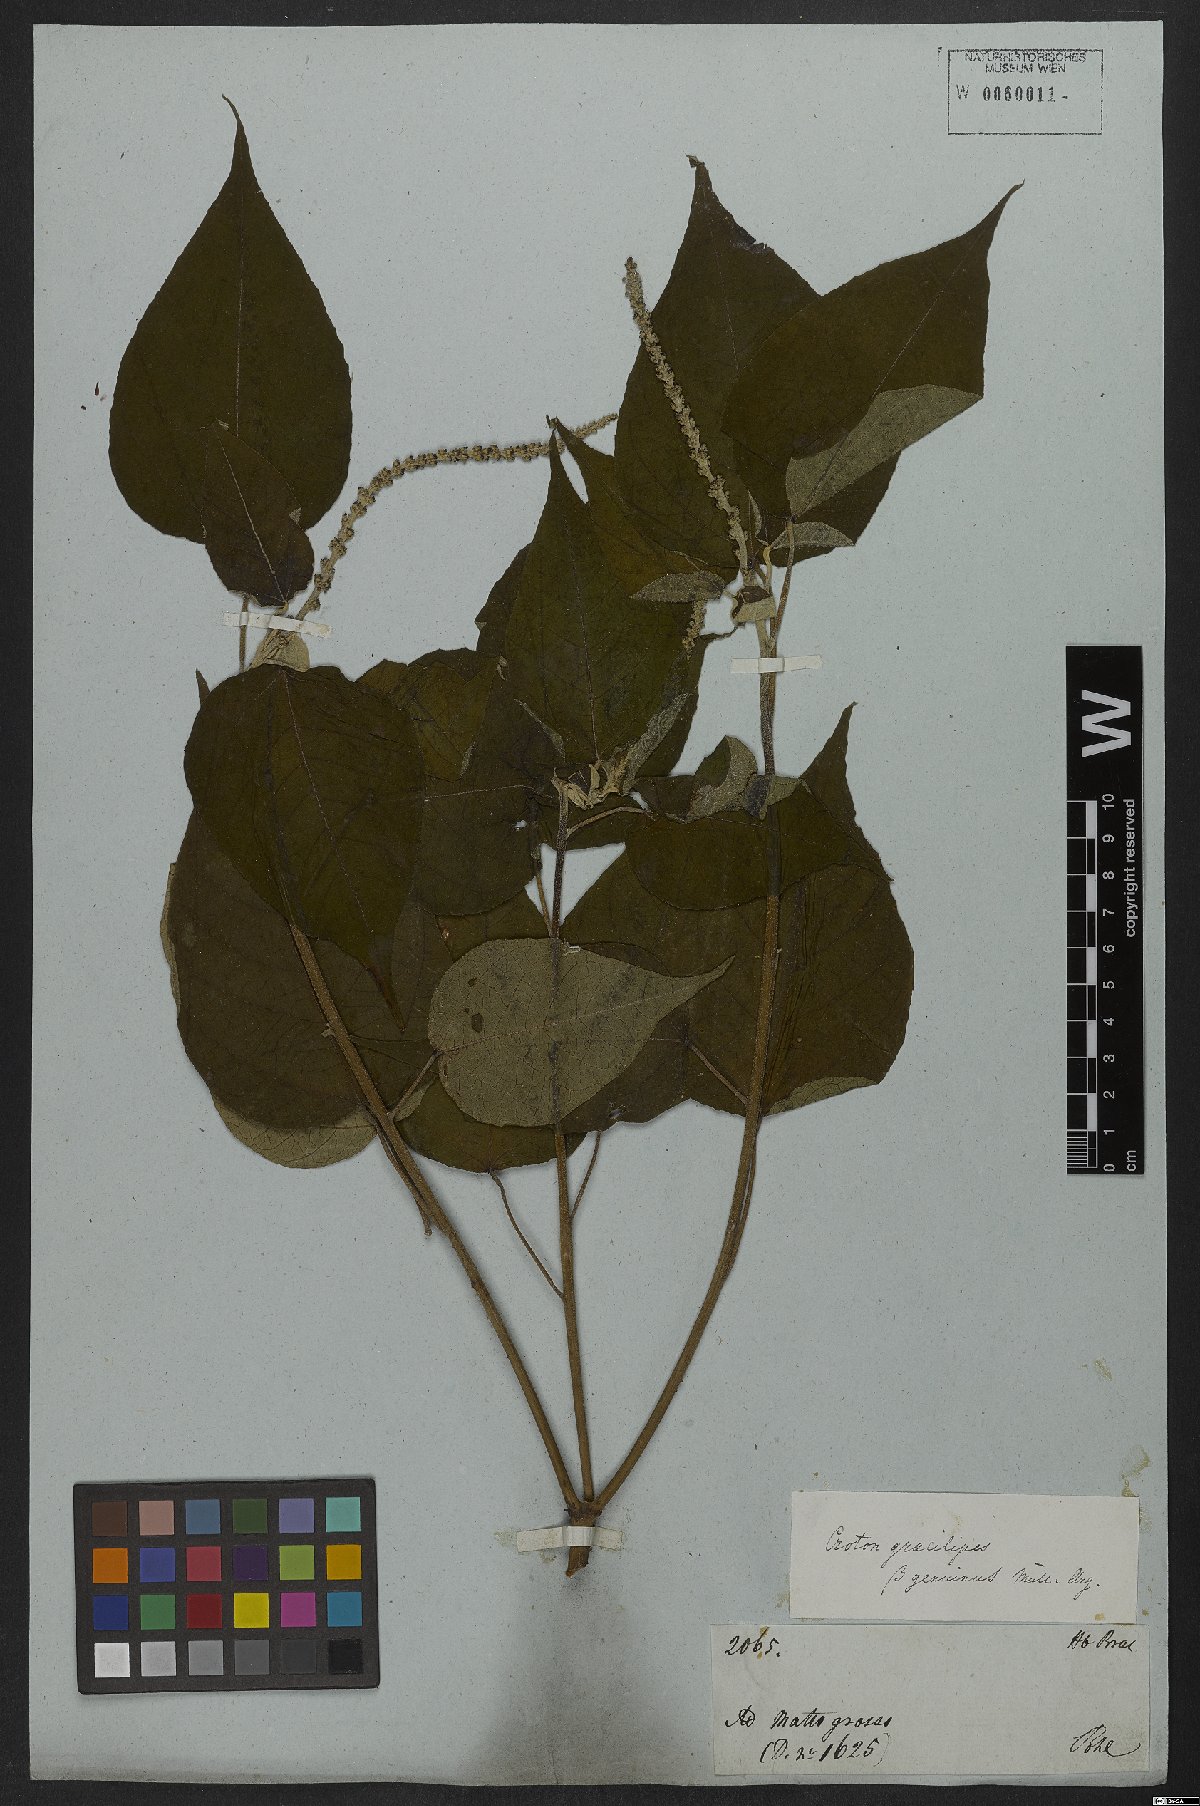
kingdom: Plantae
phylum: Tracheophyta
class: Magnoliopsida
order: Malpighiales
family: Euphorbiaceae
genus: Croton
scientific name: Croton gracilipes
